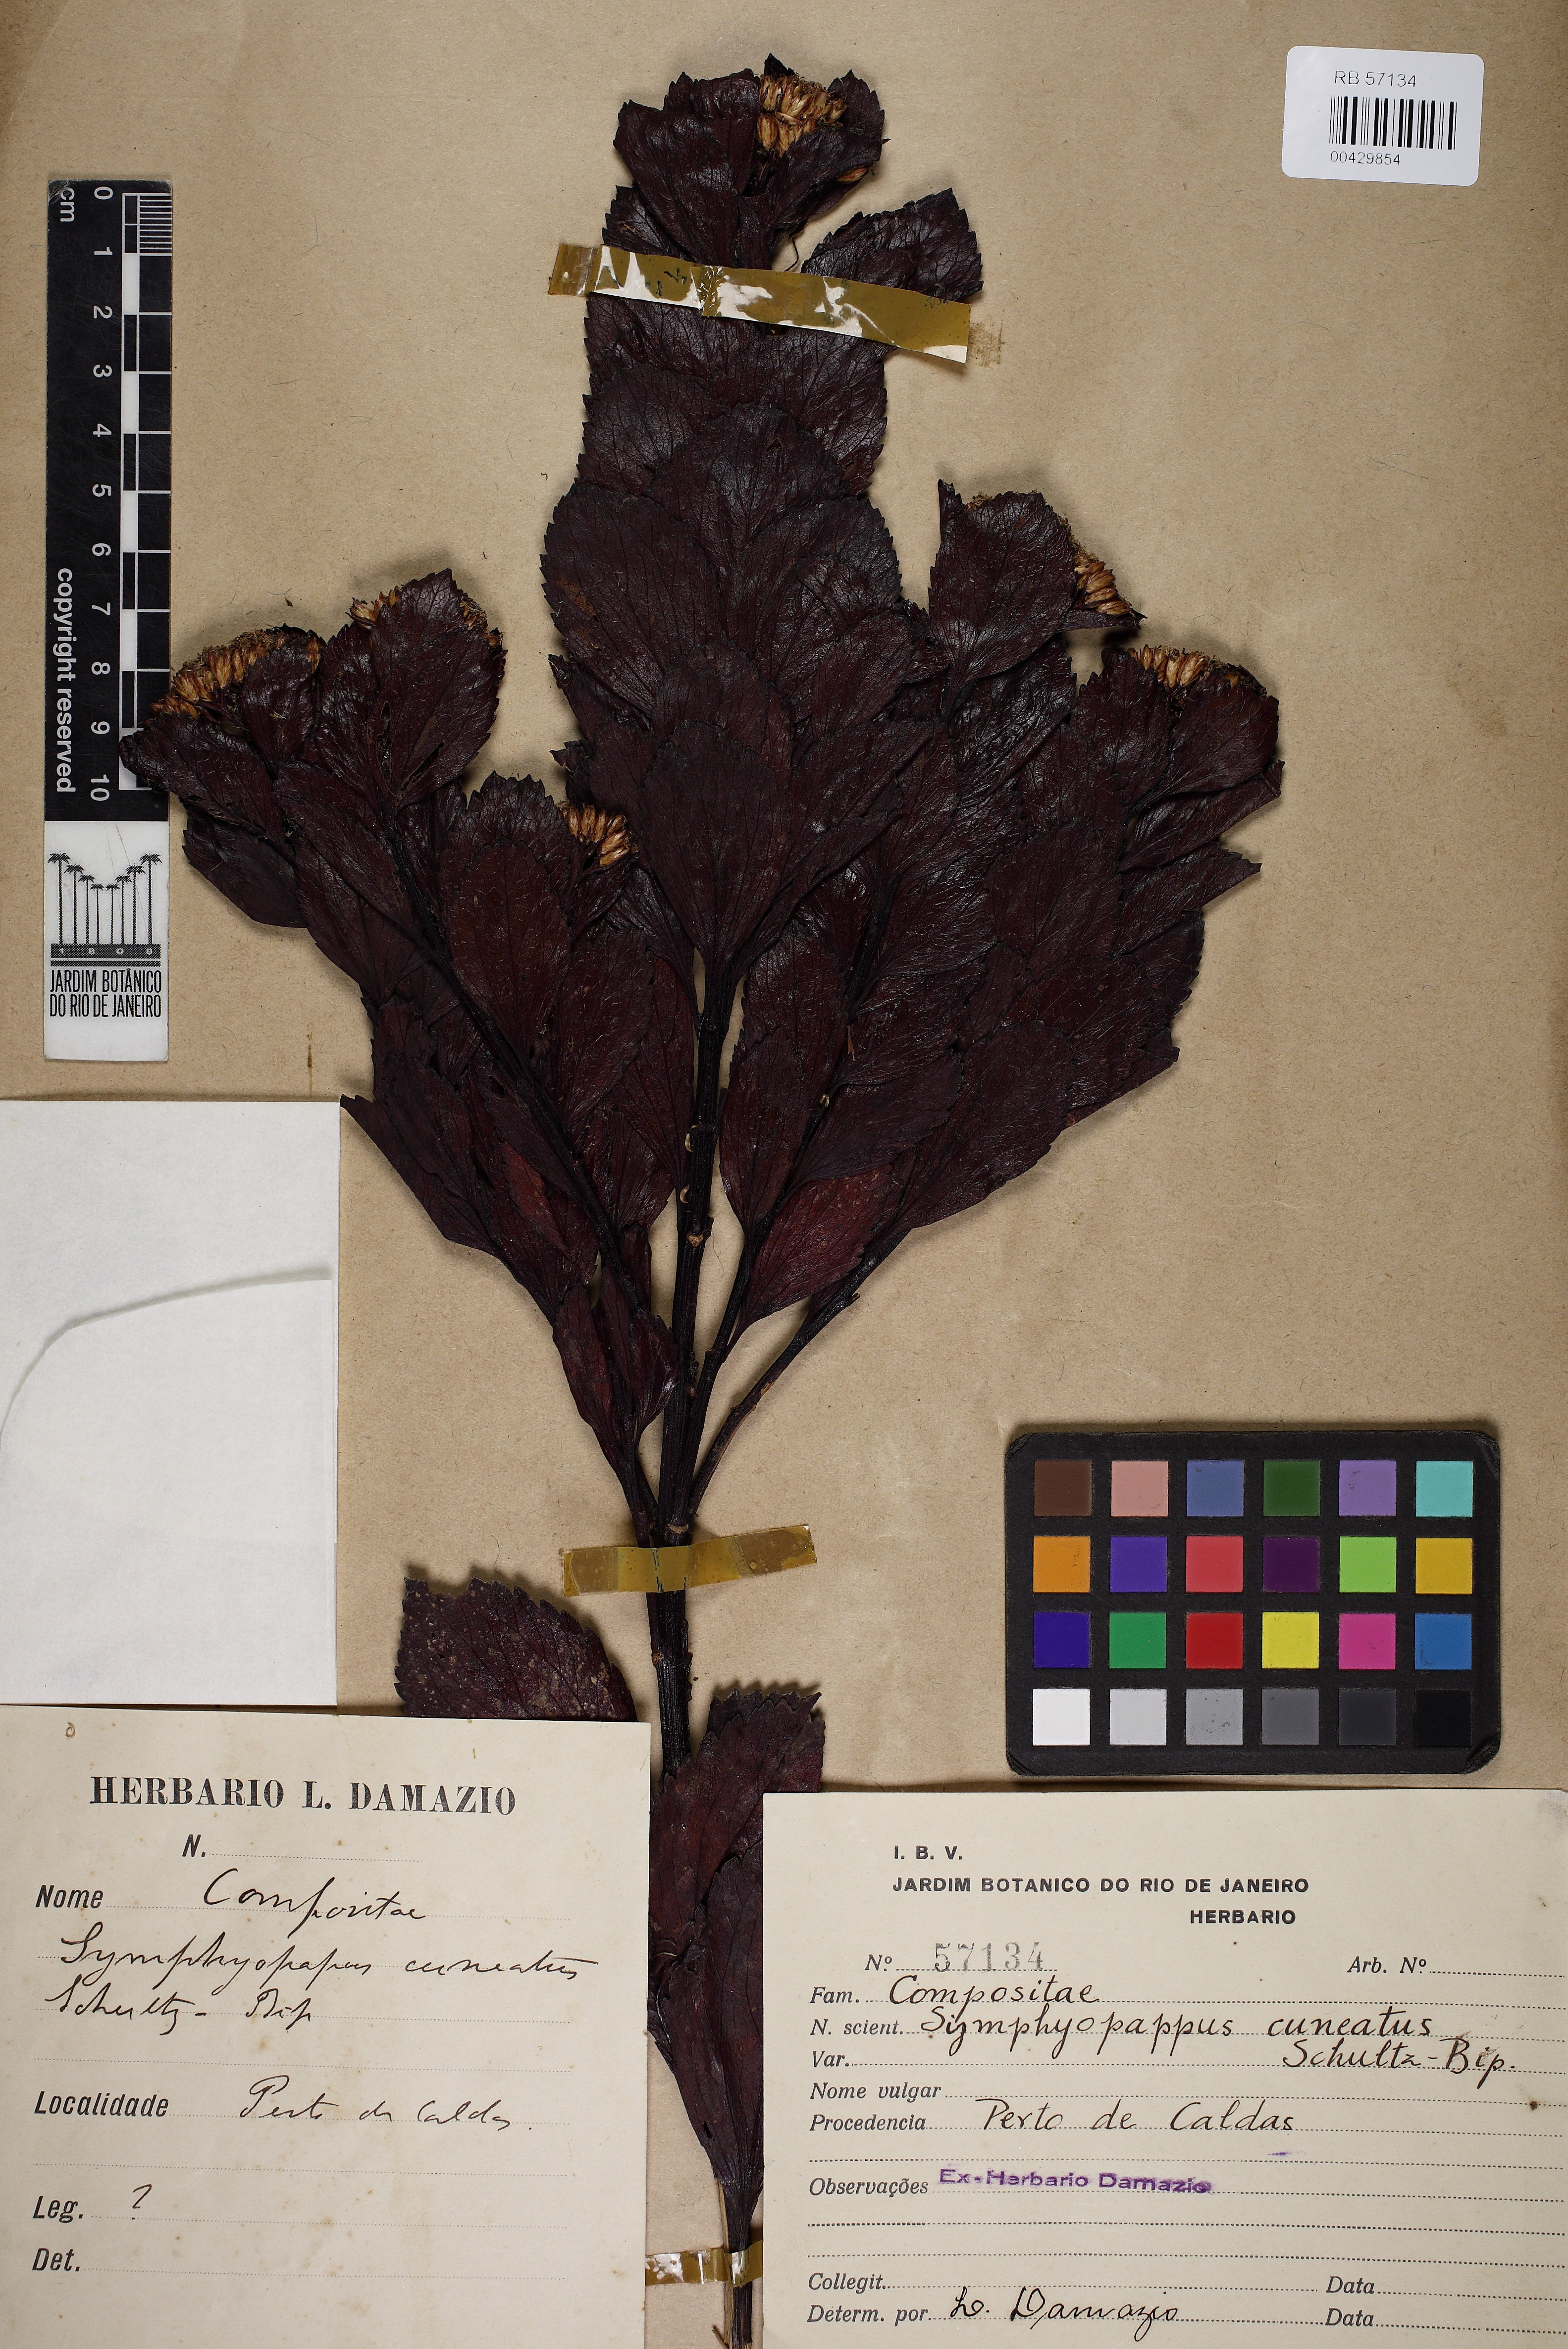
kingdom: Plantae
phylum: Tracheophyta
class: Magnoliopsida
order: Asterales
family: Asteraceae
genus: Symphyopappus
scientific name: Symphyopappus cuneatus
